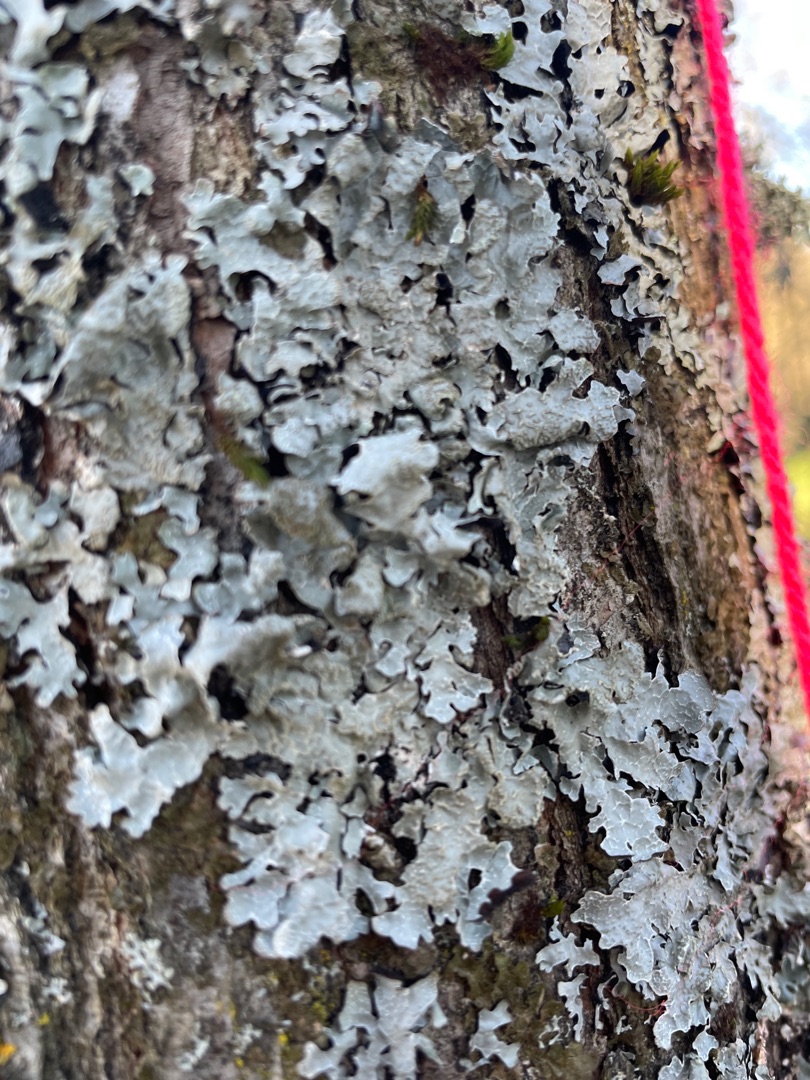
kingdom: Fungi
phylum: Ascomycota
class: Lecanoromycetes
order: Lecanorales
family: Parmeliaceae
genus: Parmelia
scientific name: Parmelia sulcata
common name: Rynket skållav
